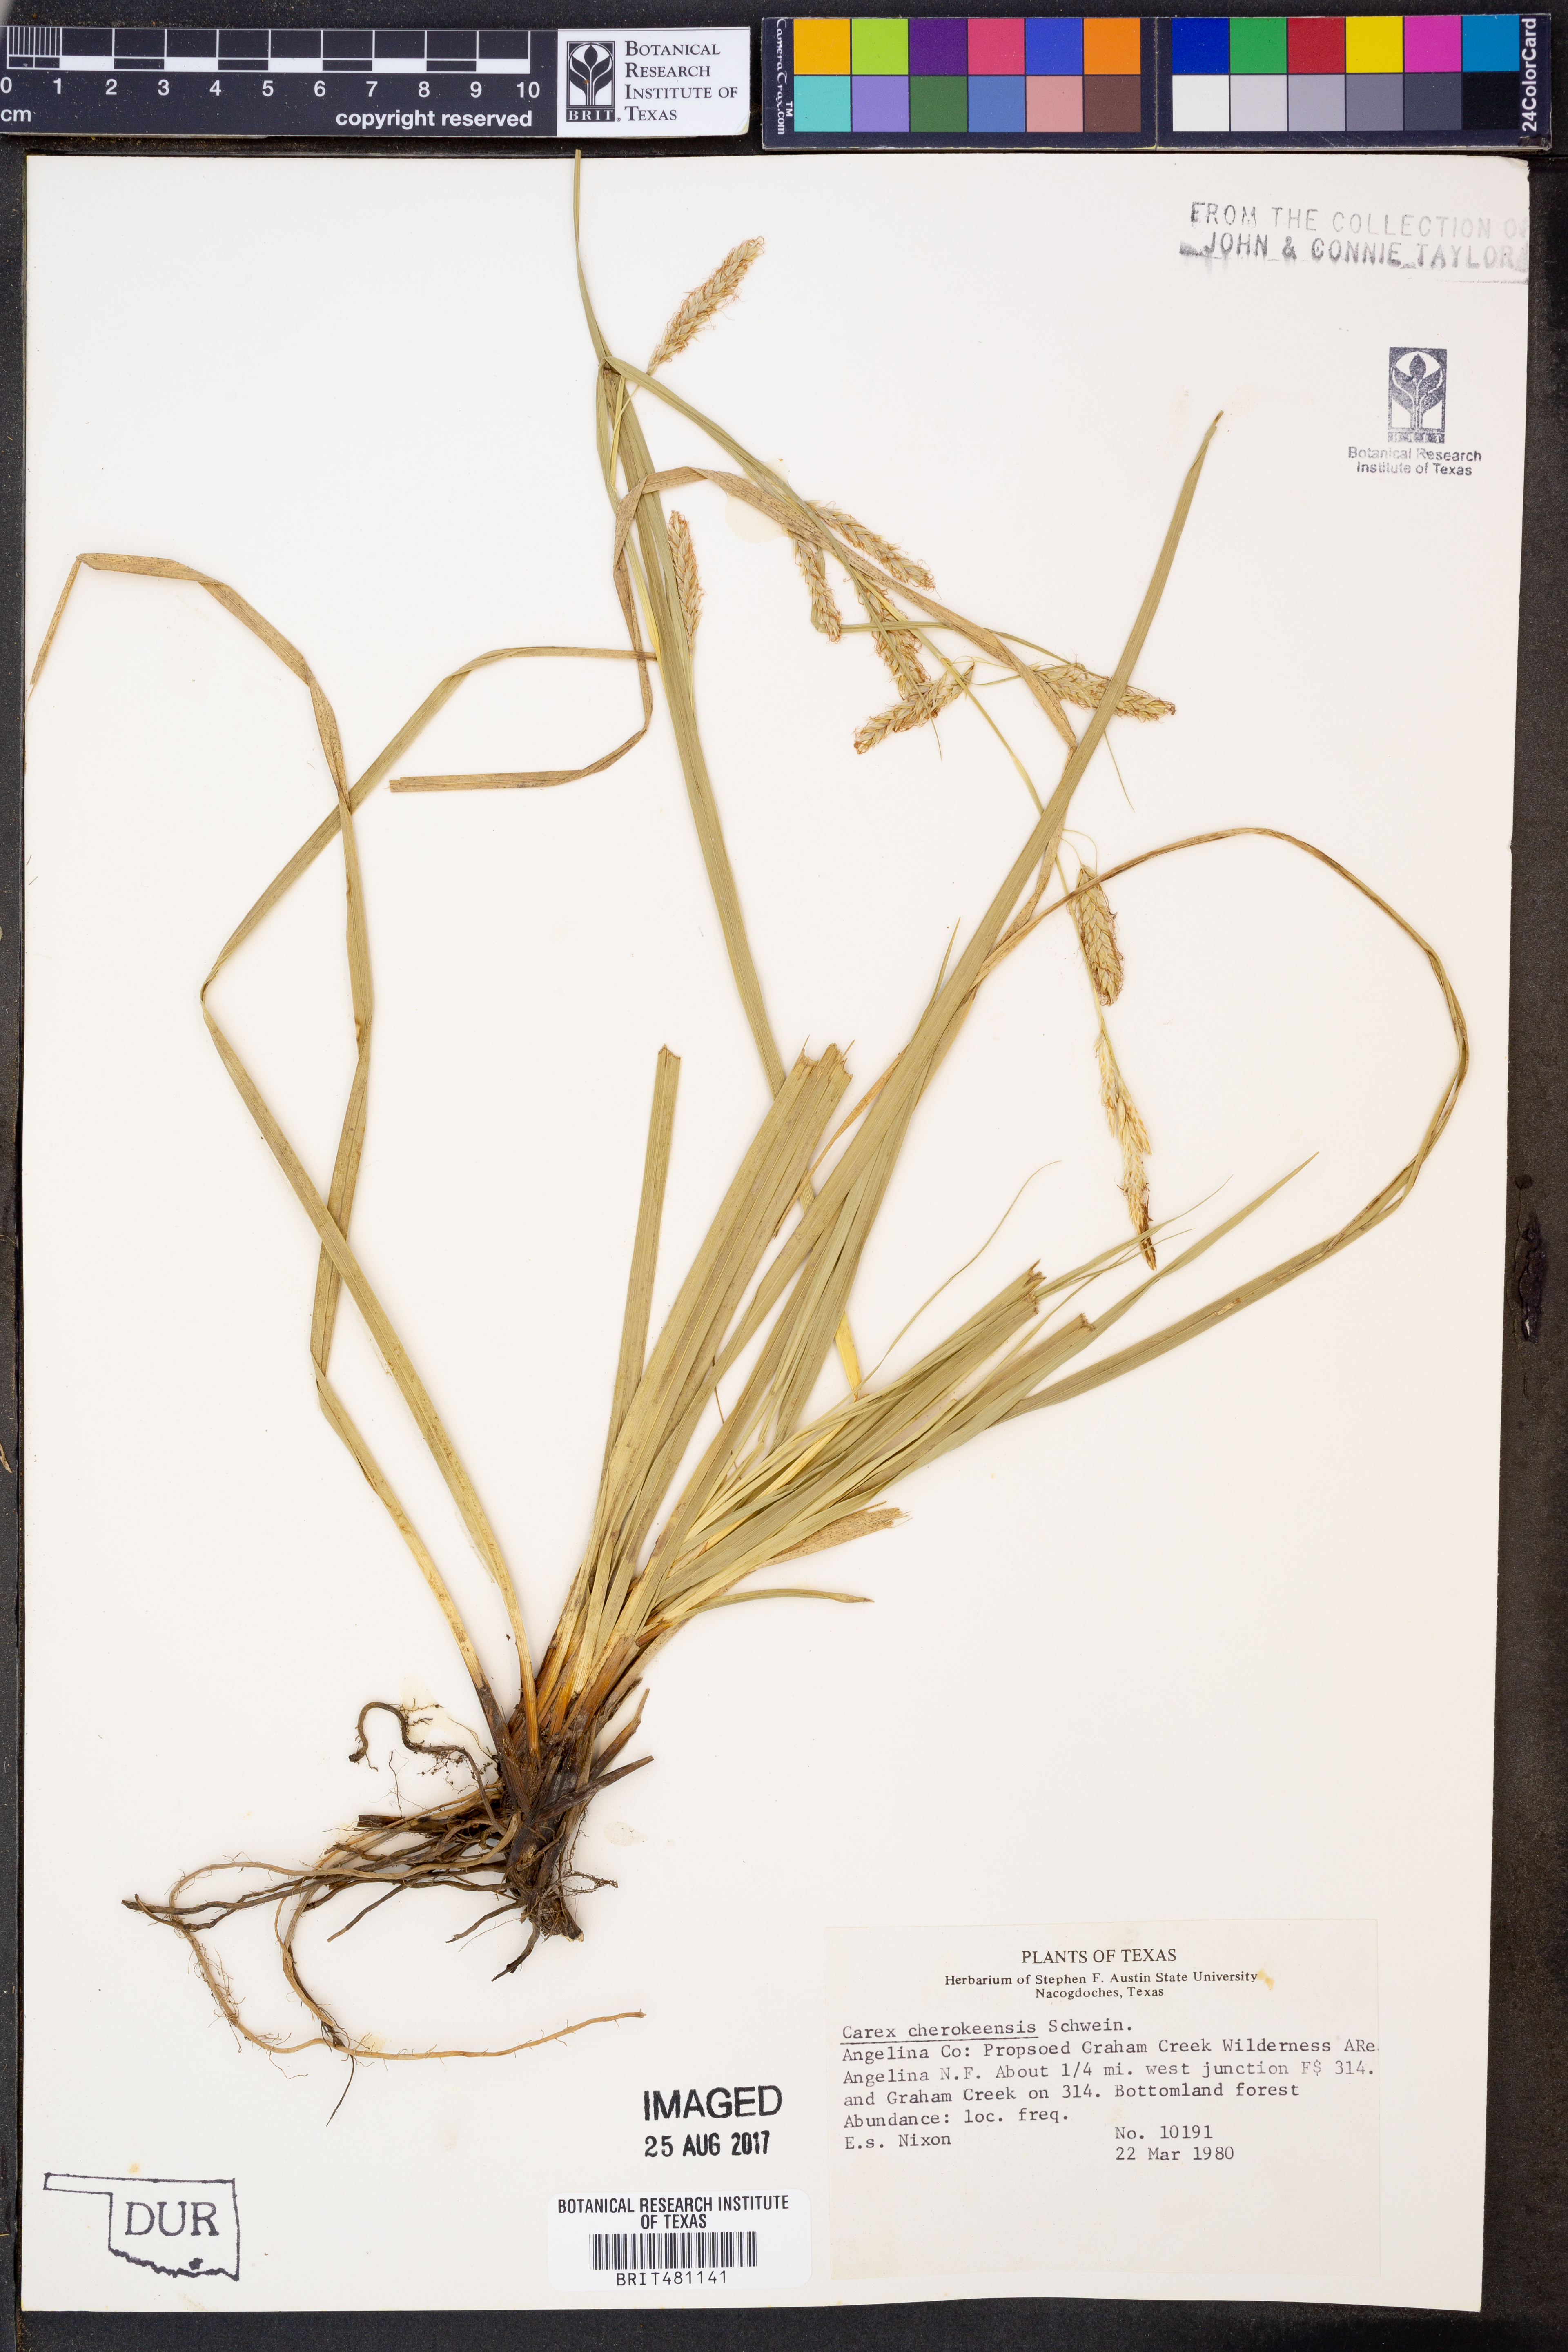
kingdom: Plantae
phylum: Tracheophyta
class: Liliopsida
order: Poales
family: Cyperaceae
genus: Carex
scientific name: Carex cherokeensis
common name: Cherokee sedge
